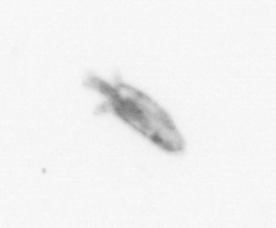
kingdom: Animalia
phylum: Arthropoda
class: Copepoda
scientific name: Copepoda
